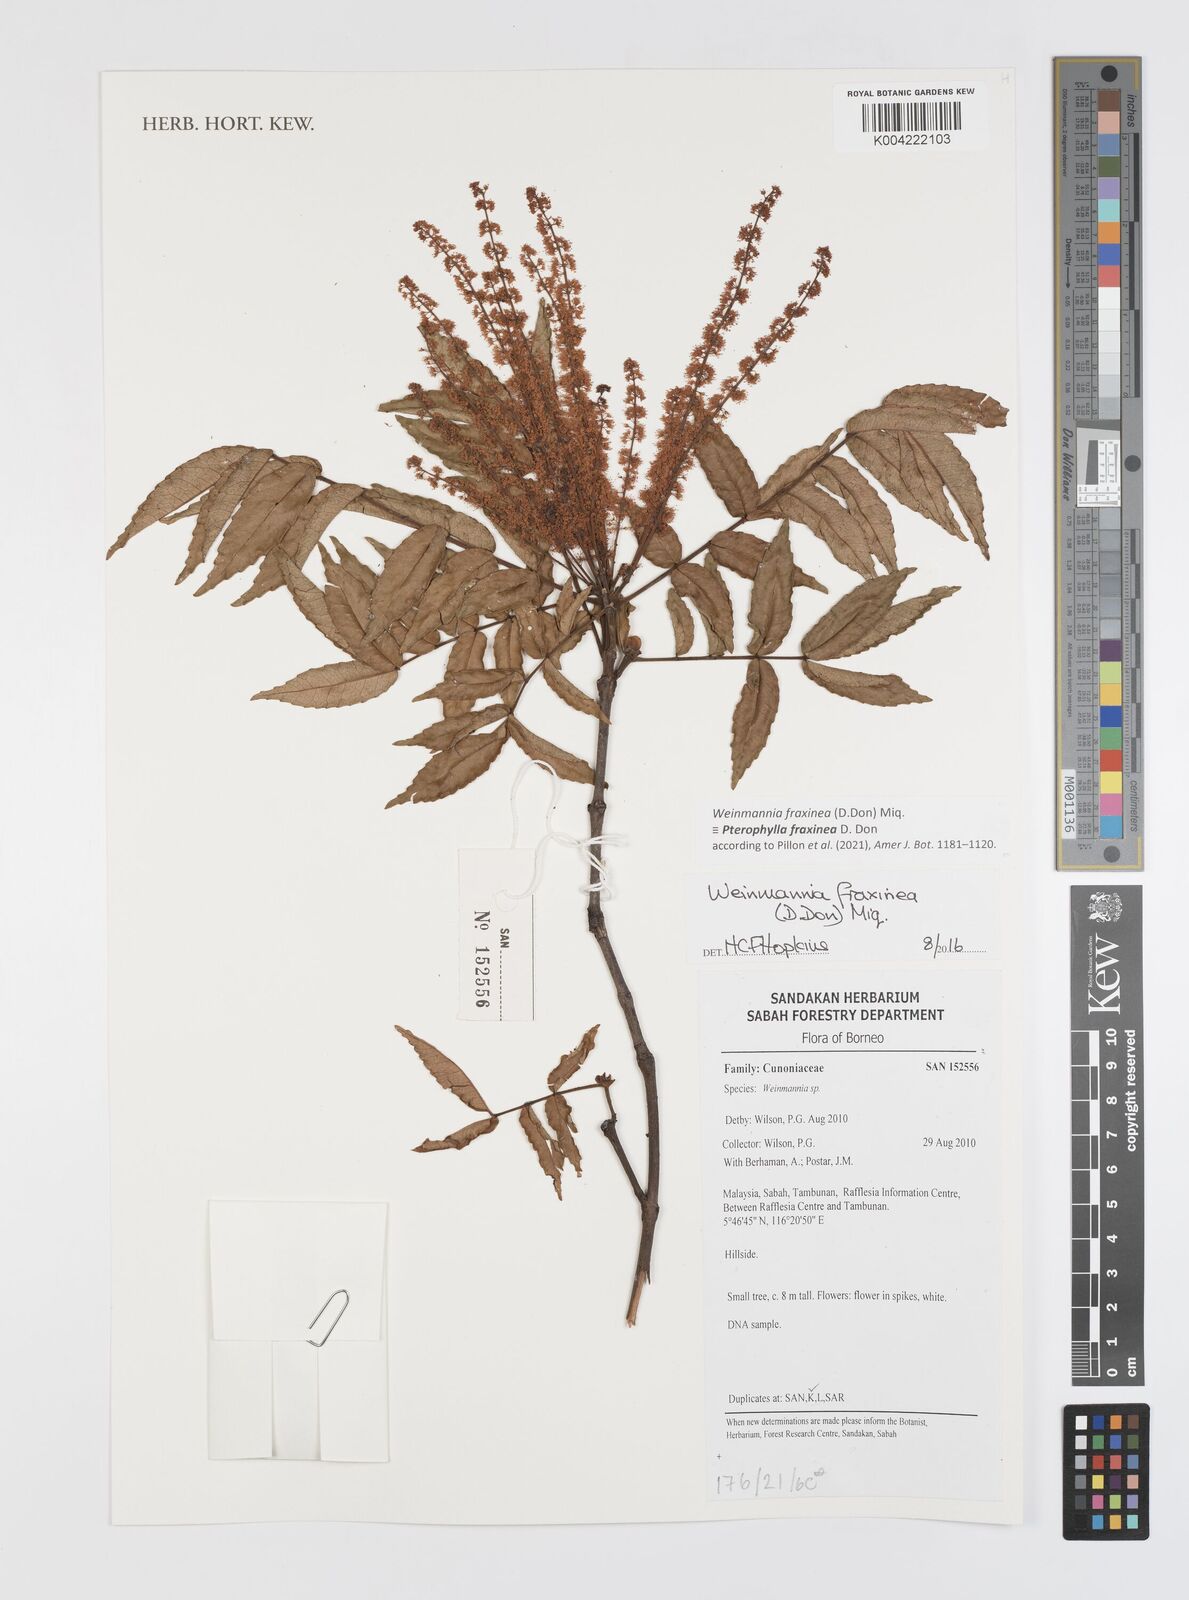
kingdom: Plantae
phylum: Tracheophyta
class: Magnoliopsida
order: Oxalidales
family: Cunoniaceae
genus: Pterophylla
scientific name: Pterophylla fraxinea
